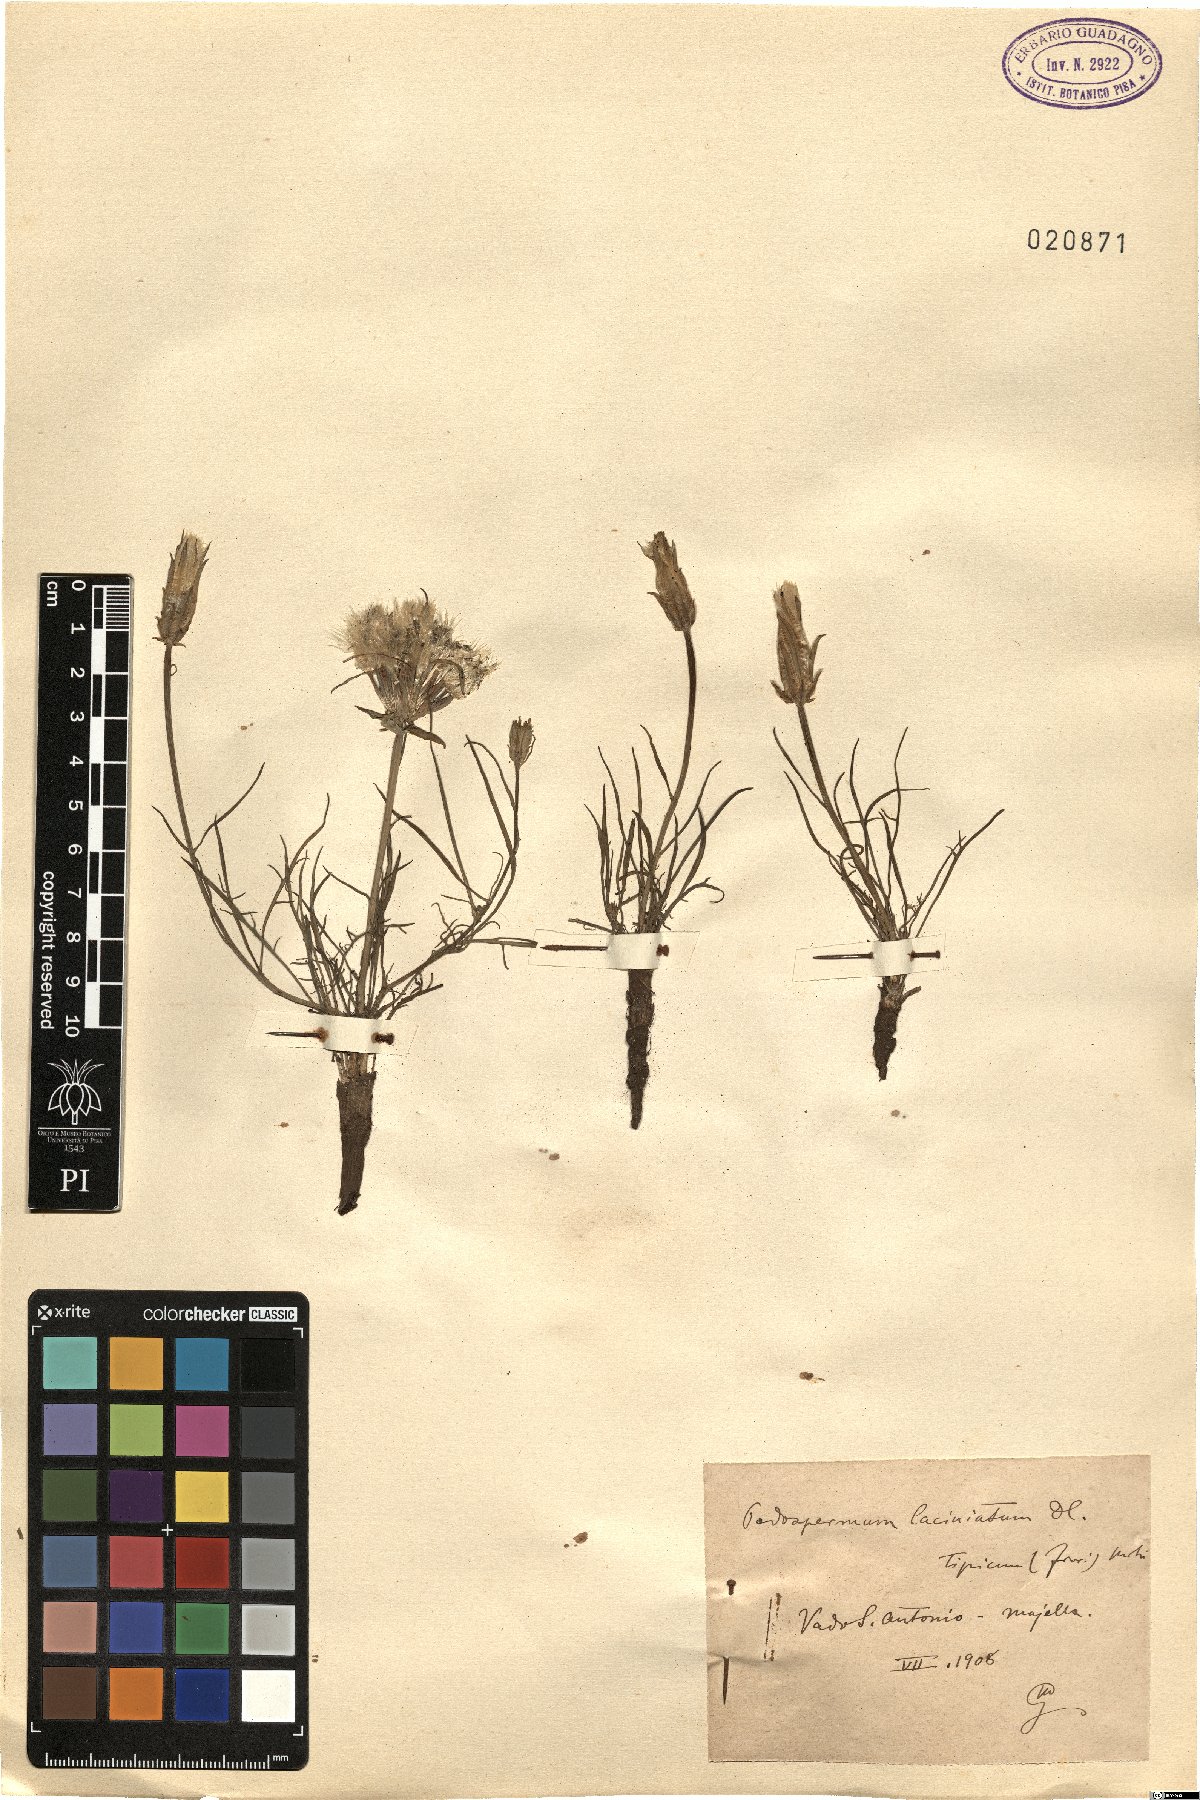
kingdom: Plantae
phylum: Tracheophyta
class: Magnoliopsida
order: Asterales
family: Asteraceae
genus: Scorzonera
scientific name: Scorzonera laciniata
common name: Cutleaf vipergrass
